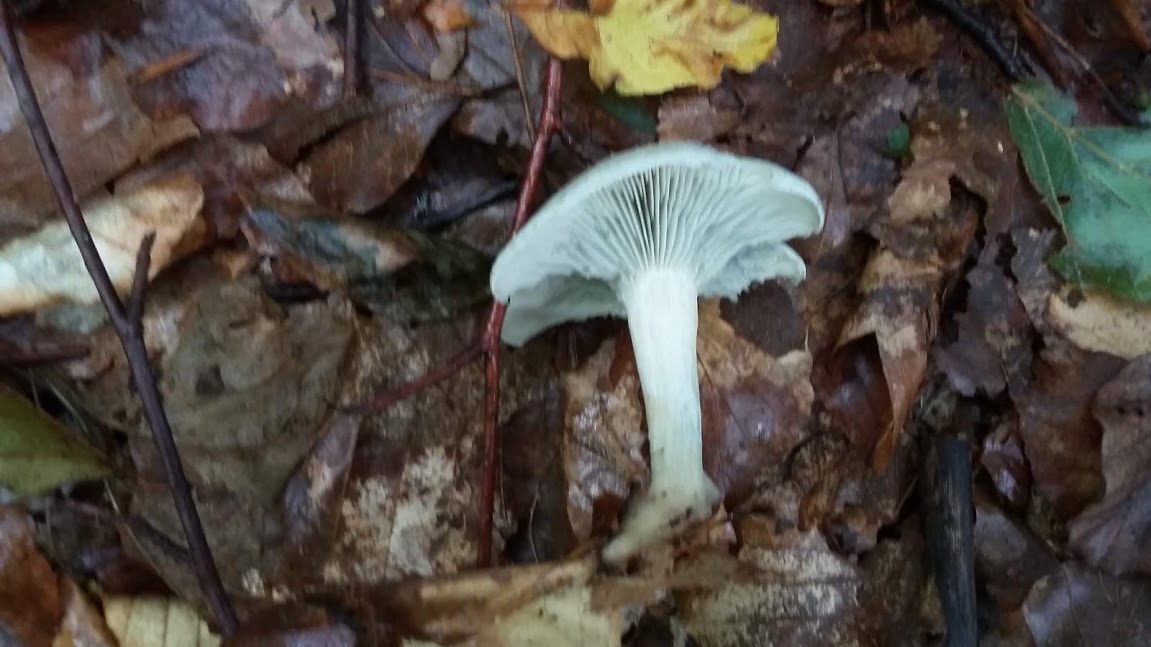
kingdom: Fungi
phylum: Basidiomycota
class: Agaricomycetes
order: Agaricales
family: Tricholomataceae
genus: Clitocybe
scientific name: Clitocybe odora
